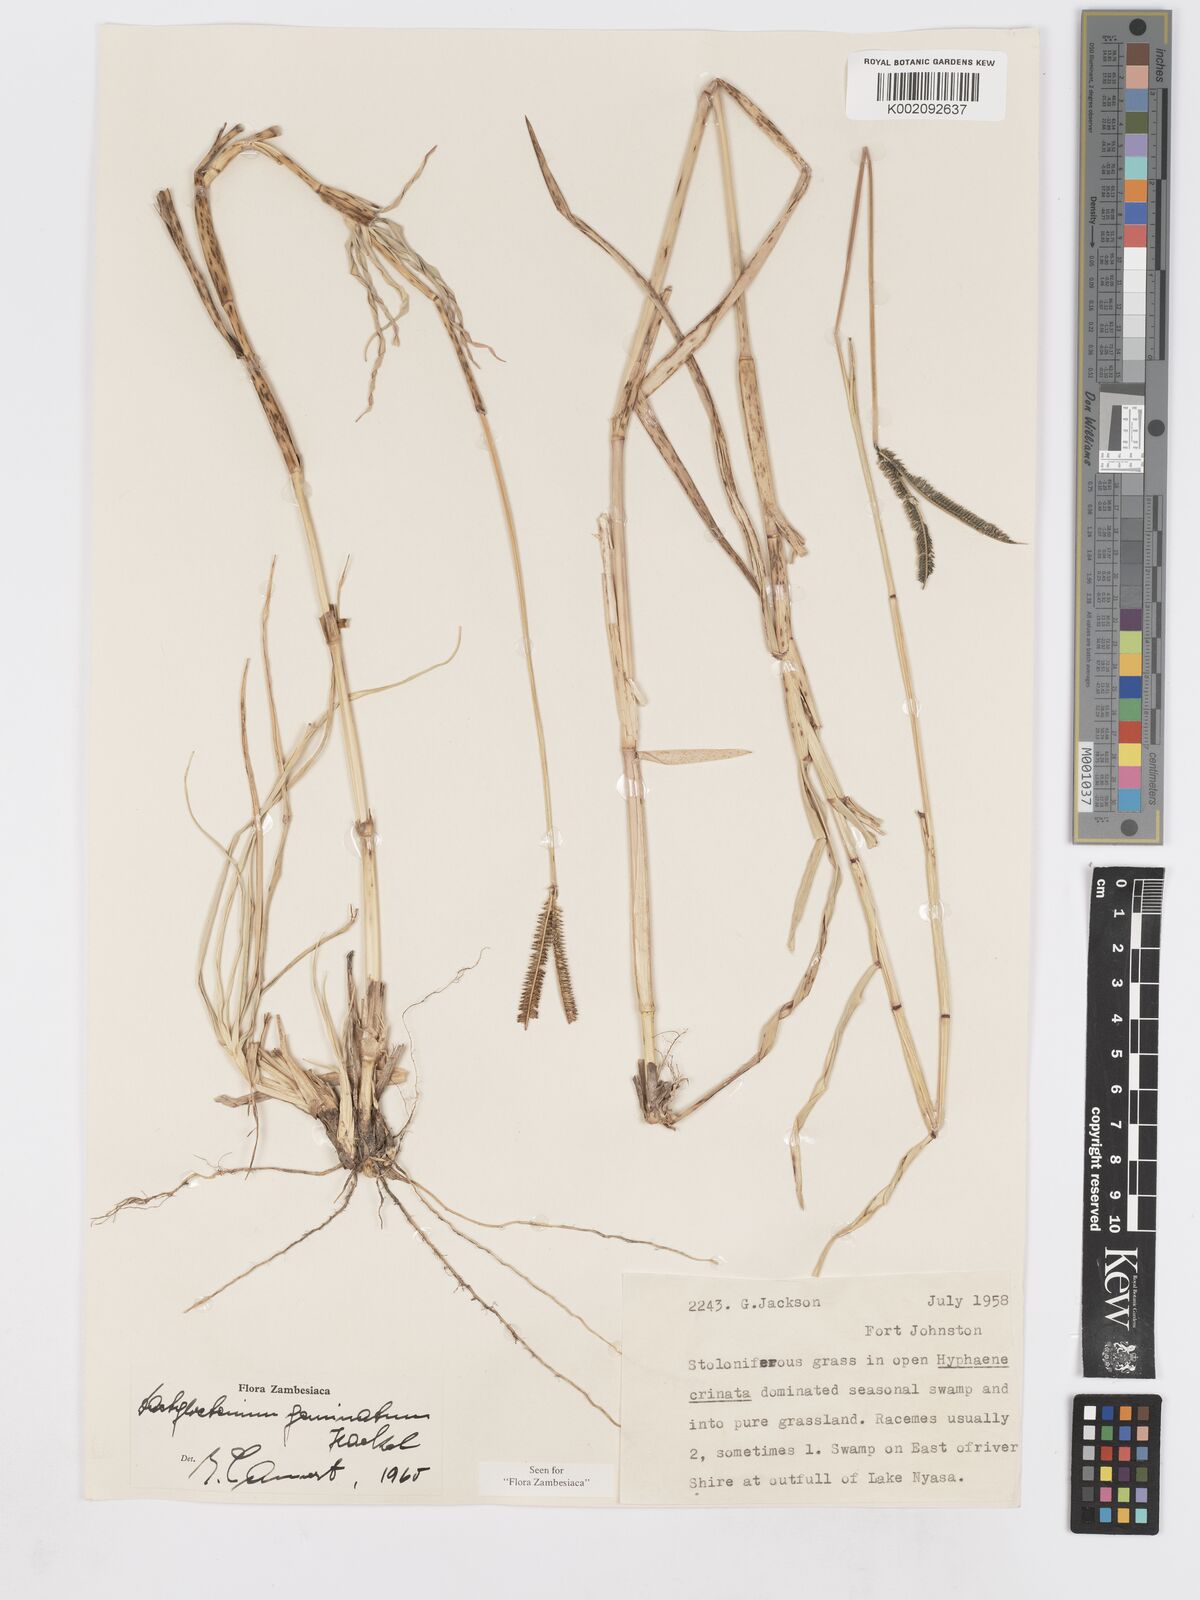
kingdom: Plantae
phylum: Tracheophyta
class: Liliopsida
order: Poales
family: Poaceae
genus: Dactyloctenium
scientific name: Dactyloctenium geminatum
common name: Crowsfoot grass
